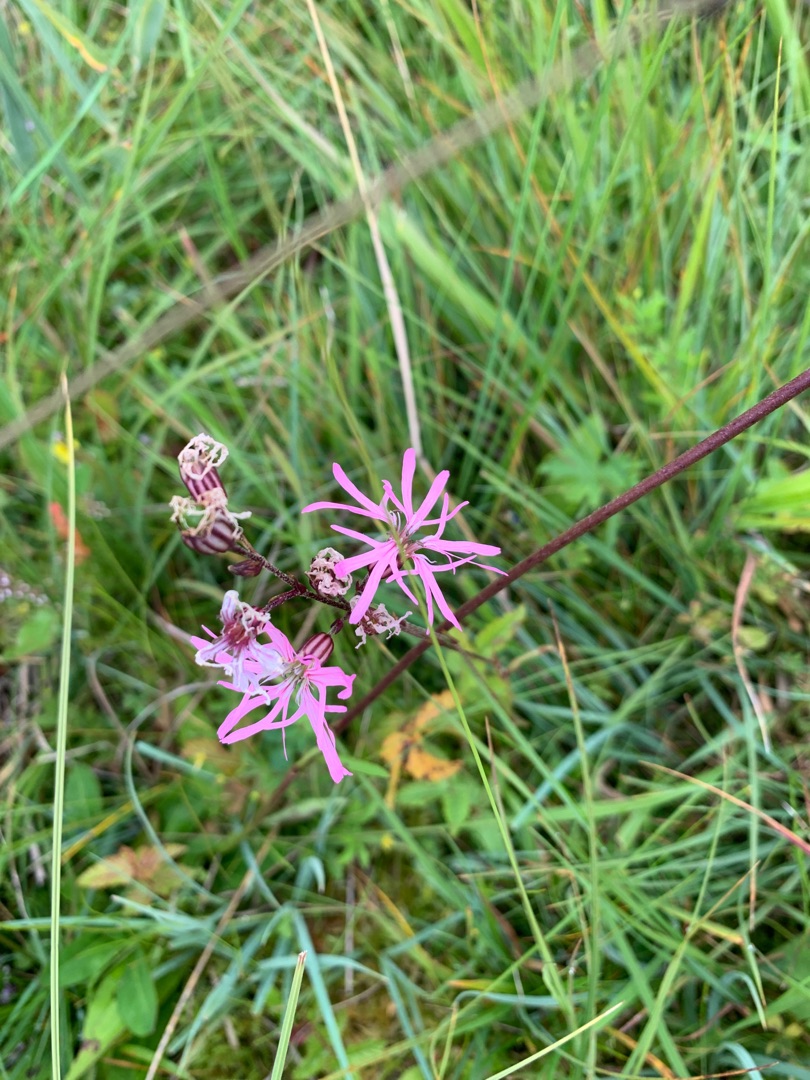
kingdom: Plantae
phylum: Tracheophyta
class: Magnoliopsida
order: Caryophyllales
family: Caryophyllaceae
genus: Silene
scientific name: Silene flos-cuculi
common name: Trævlekrone
